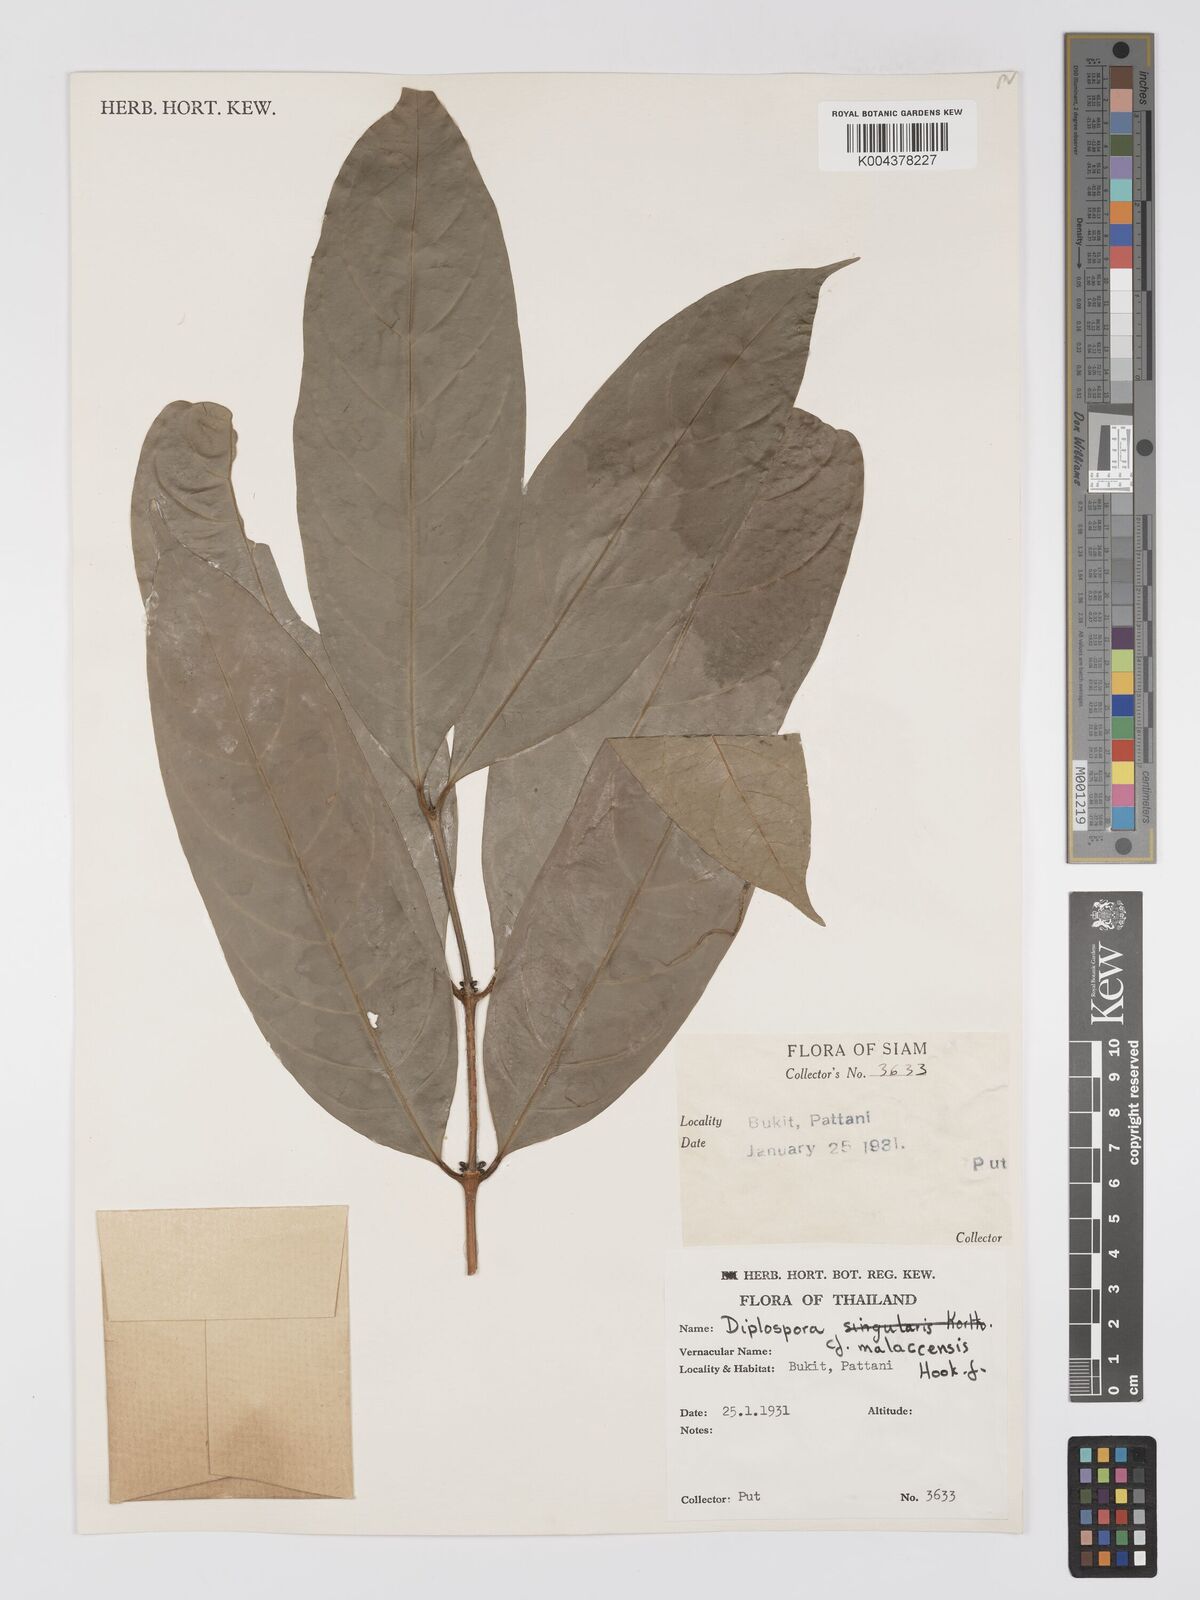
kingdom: Plantae
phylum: Tracheophyta
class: Magnoliopsida
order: Gentianales
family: Rubiaceae
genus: Diplospora
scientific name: Diplospora
